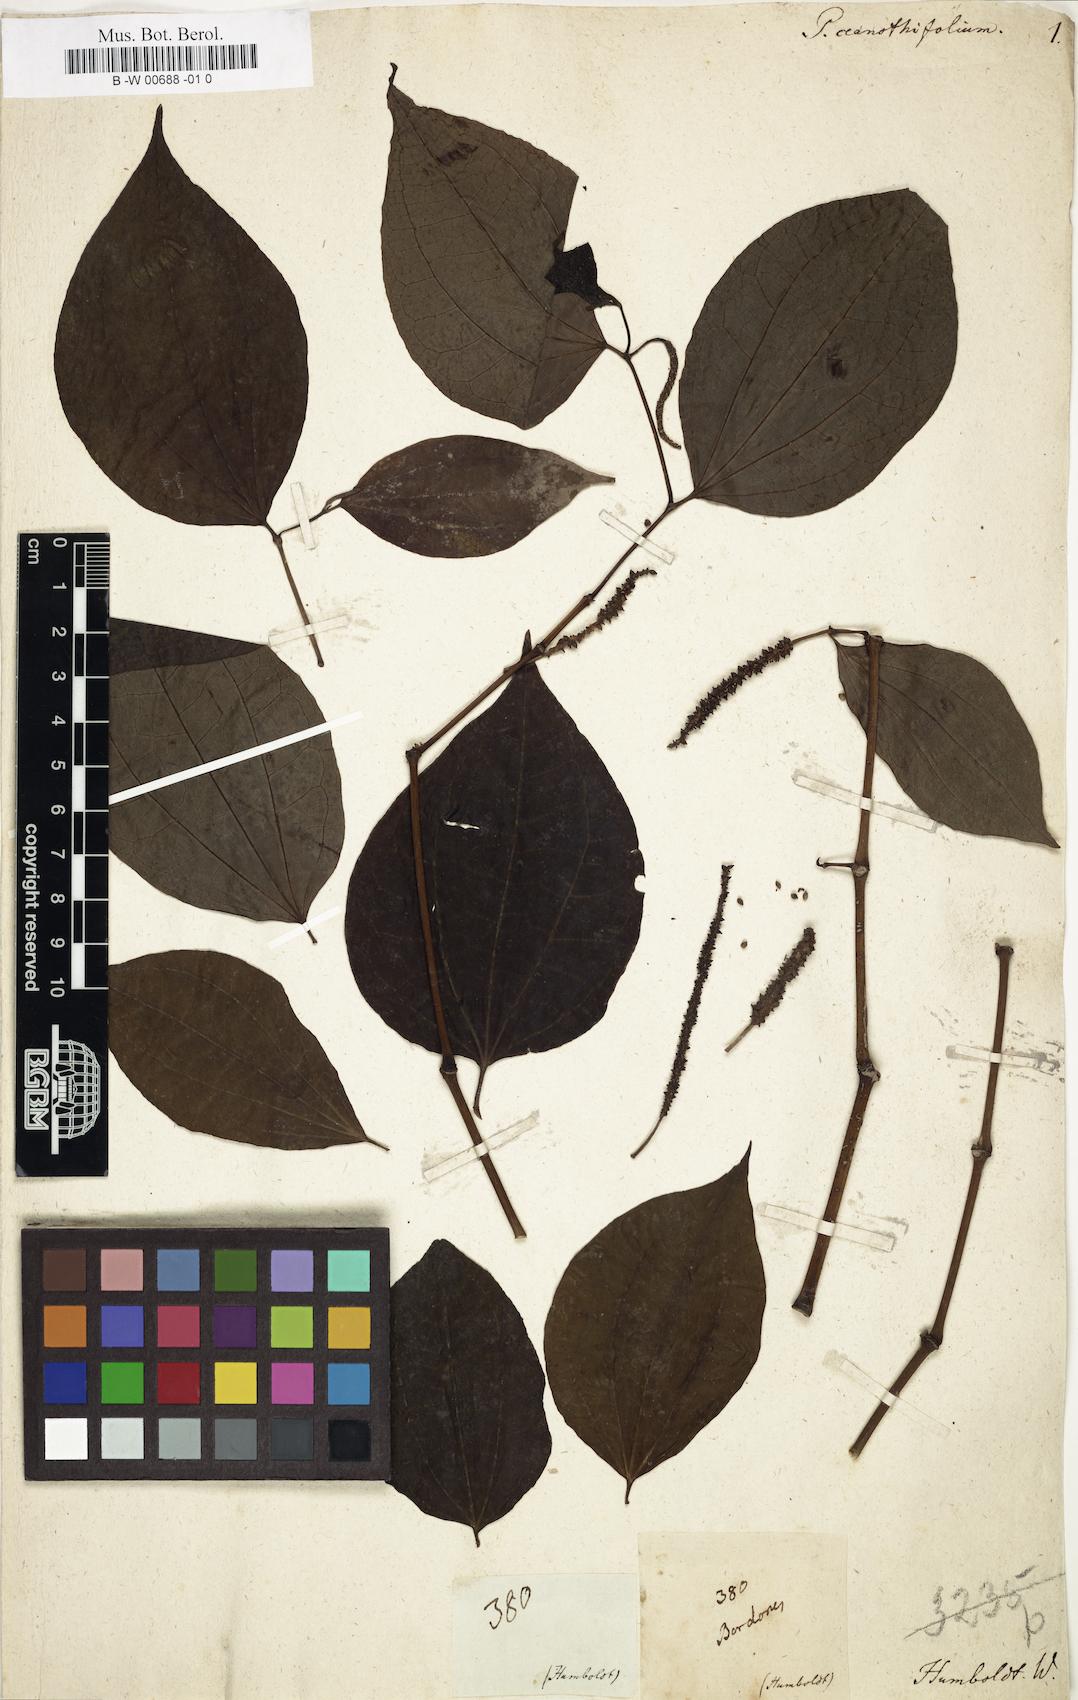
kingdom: Plantae
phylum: Tracheophyta
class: Magnoliopsida
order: Piperales
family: Piperaceae
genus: Piper
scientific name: Piper ceanothifolium
